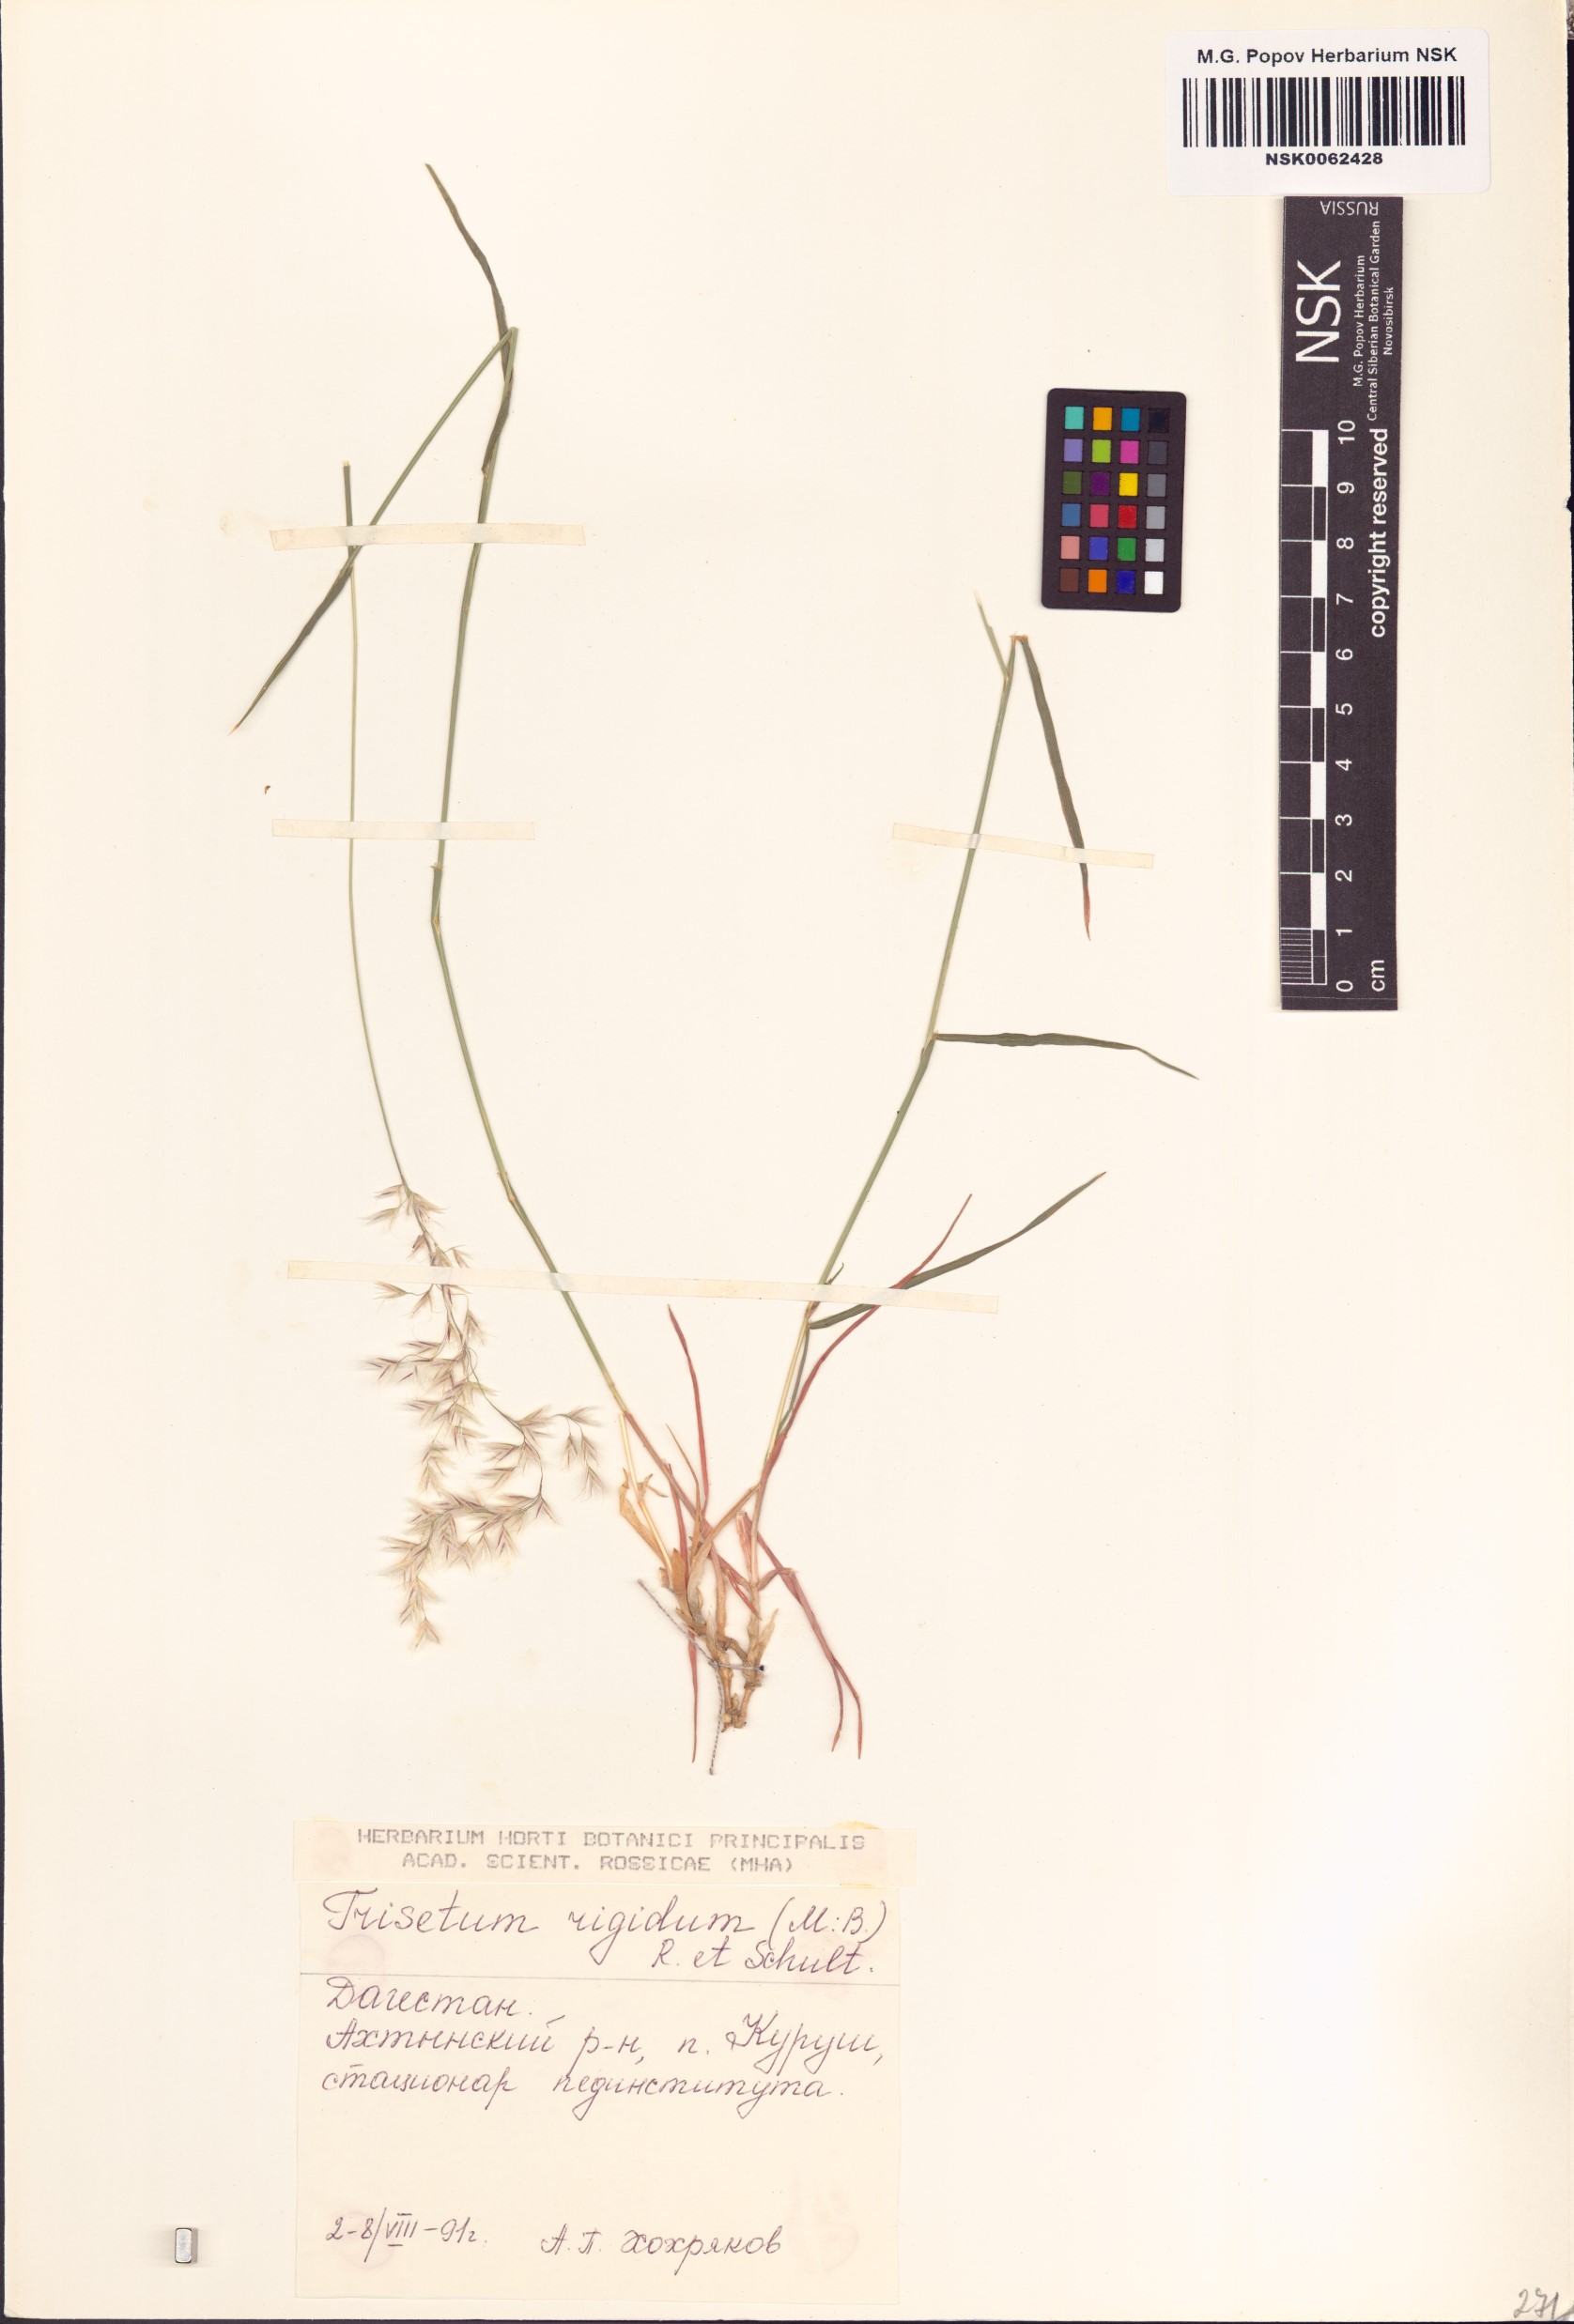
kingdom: Plantae
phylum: Tracheophyta
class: Liliopsida
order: Poales
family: Poaceae
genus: Trisetum
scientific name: Trisetum rigidum
